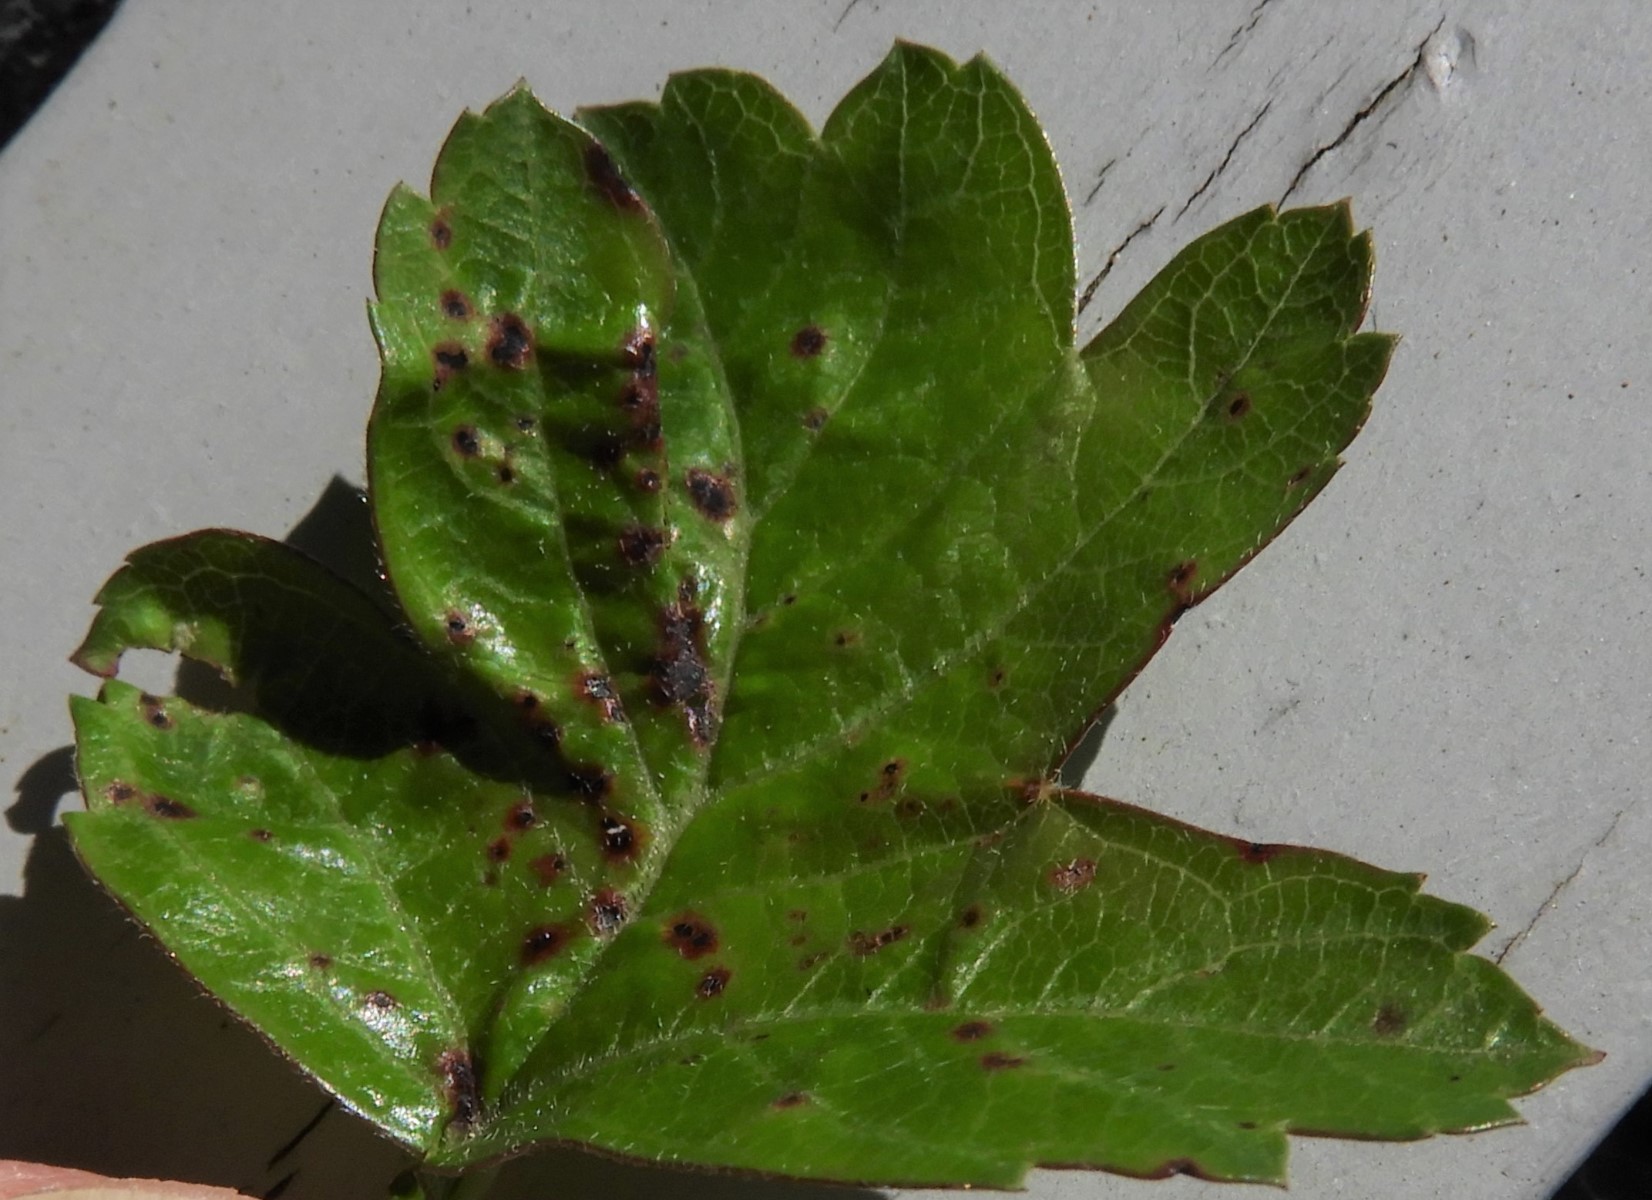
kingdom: Fungi
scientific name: Fungi
